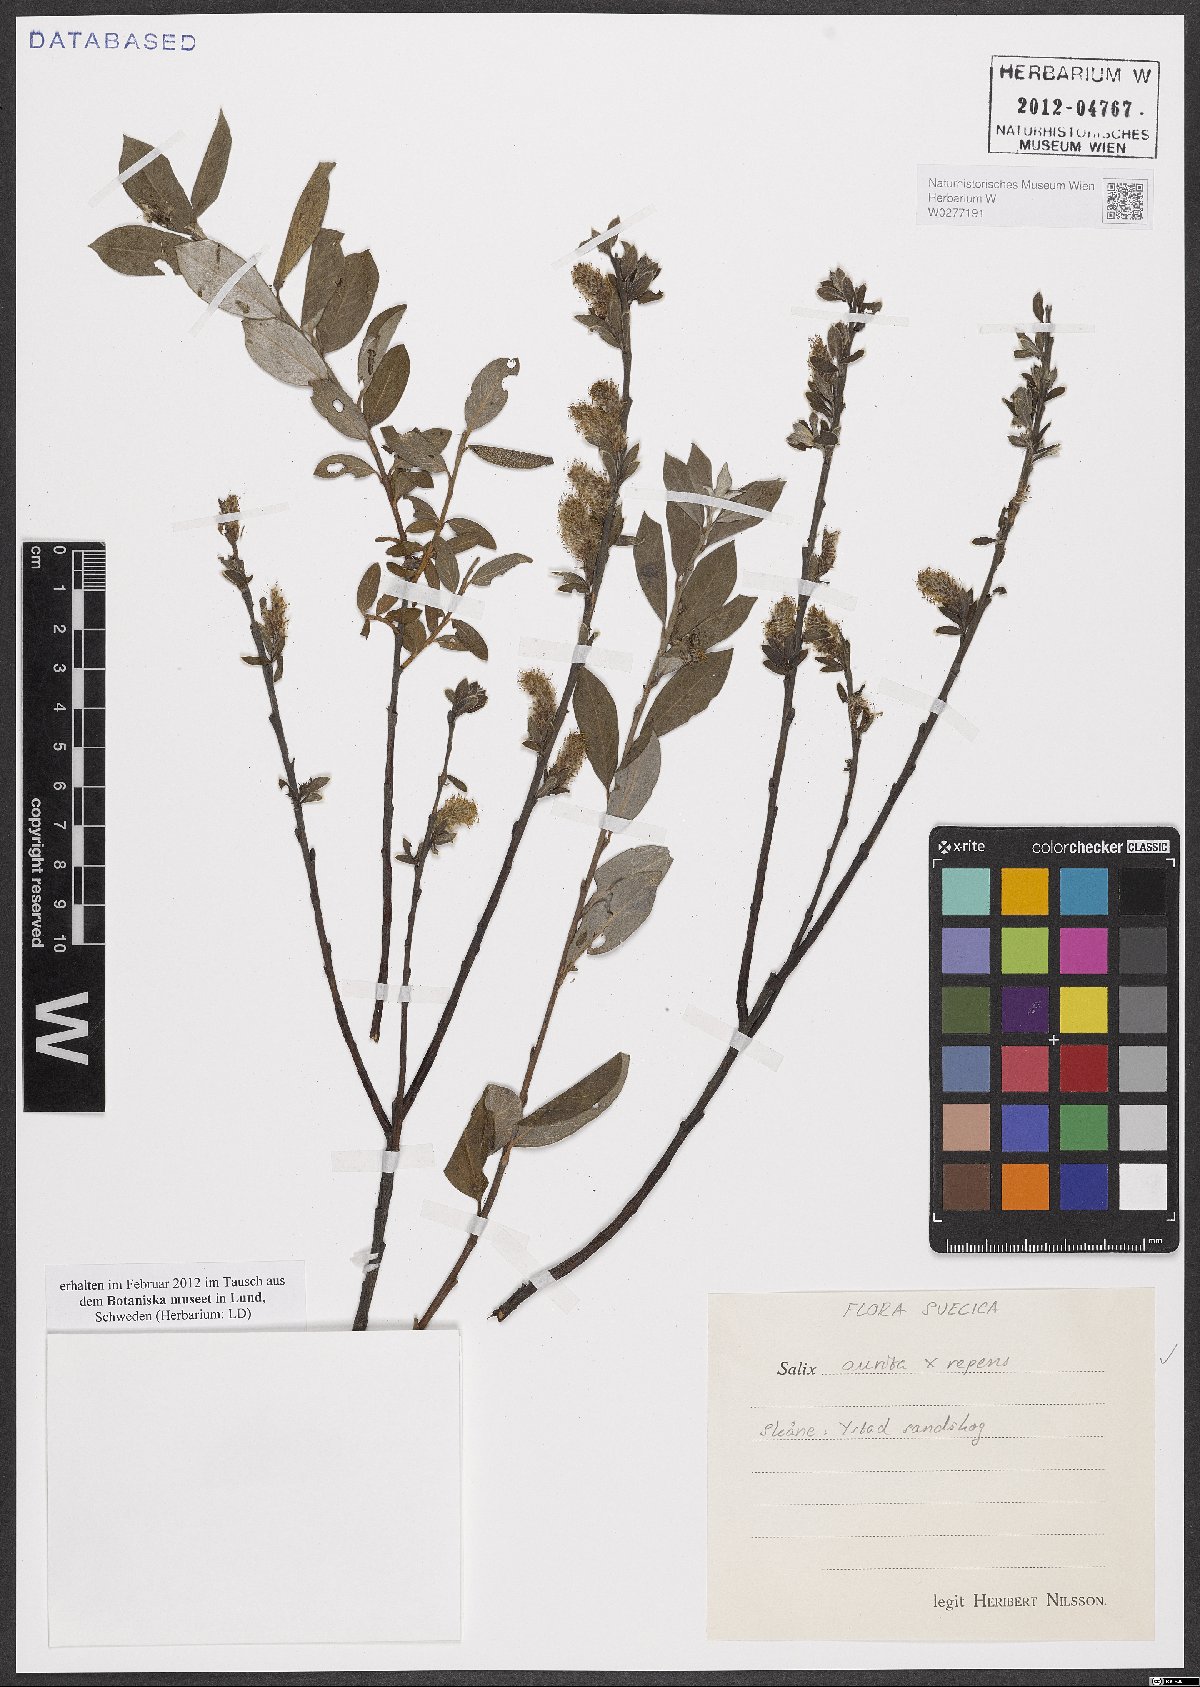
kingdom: Plantae
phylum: Tracheophyta
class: Magnoliopsida
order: Malpighiales
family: Salicaceae
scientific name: Salicaceae
